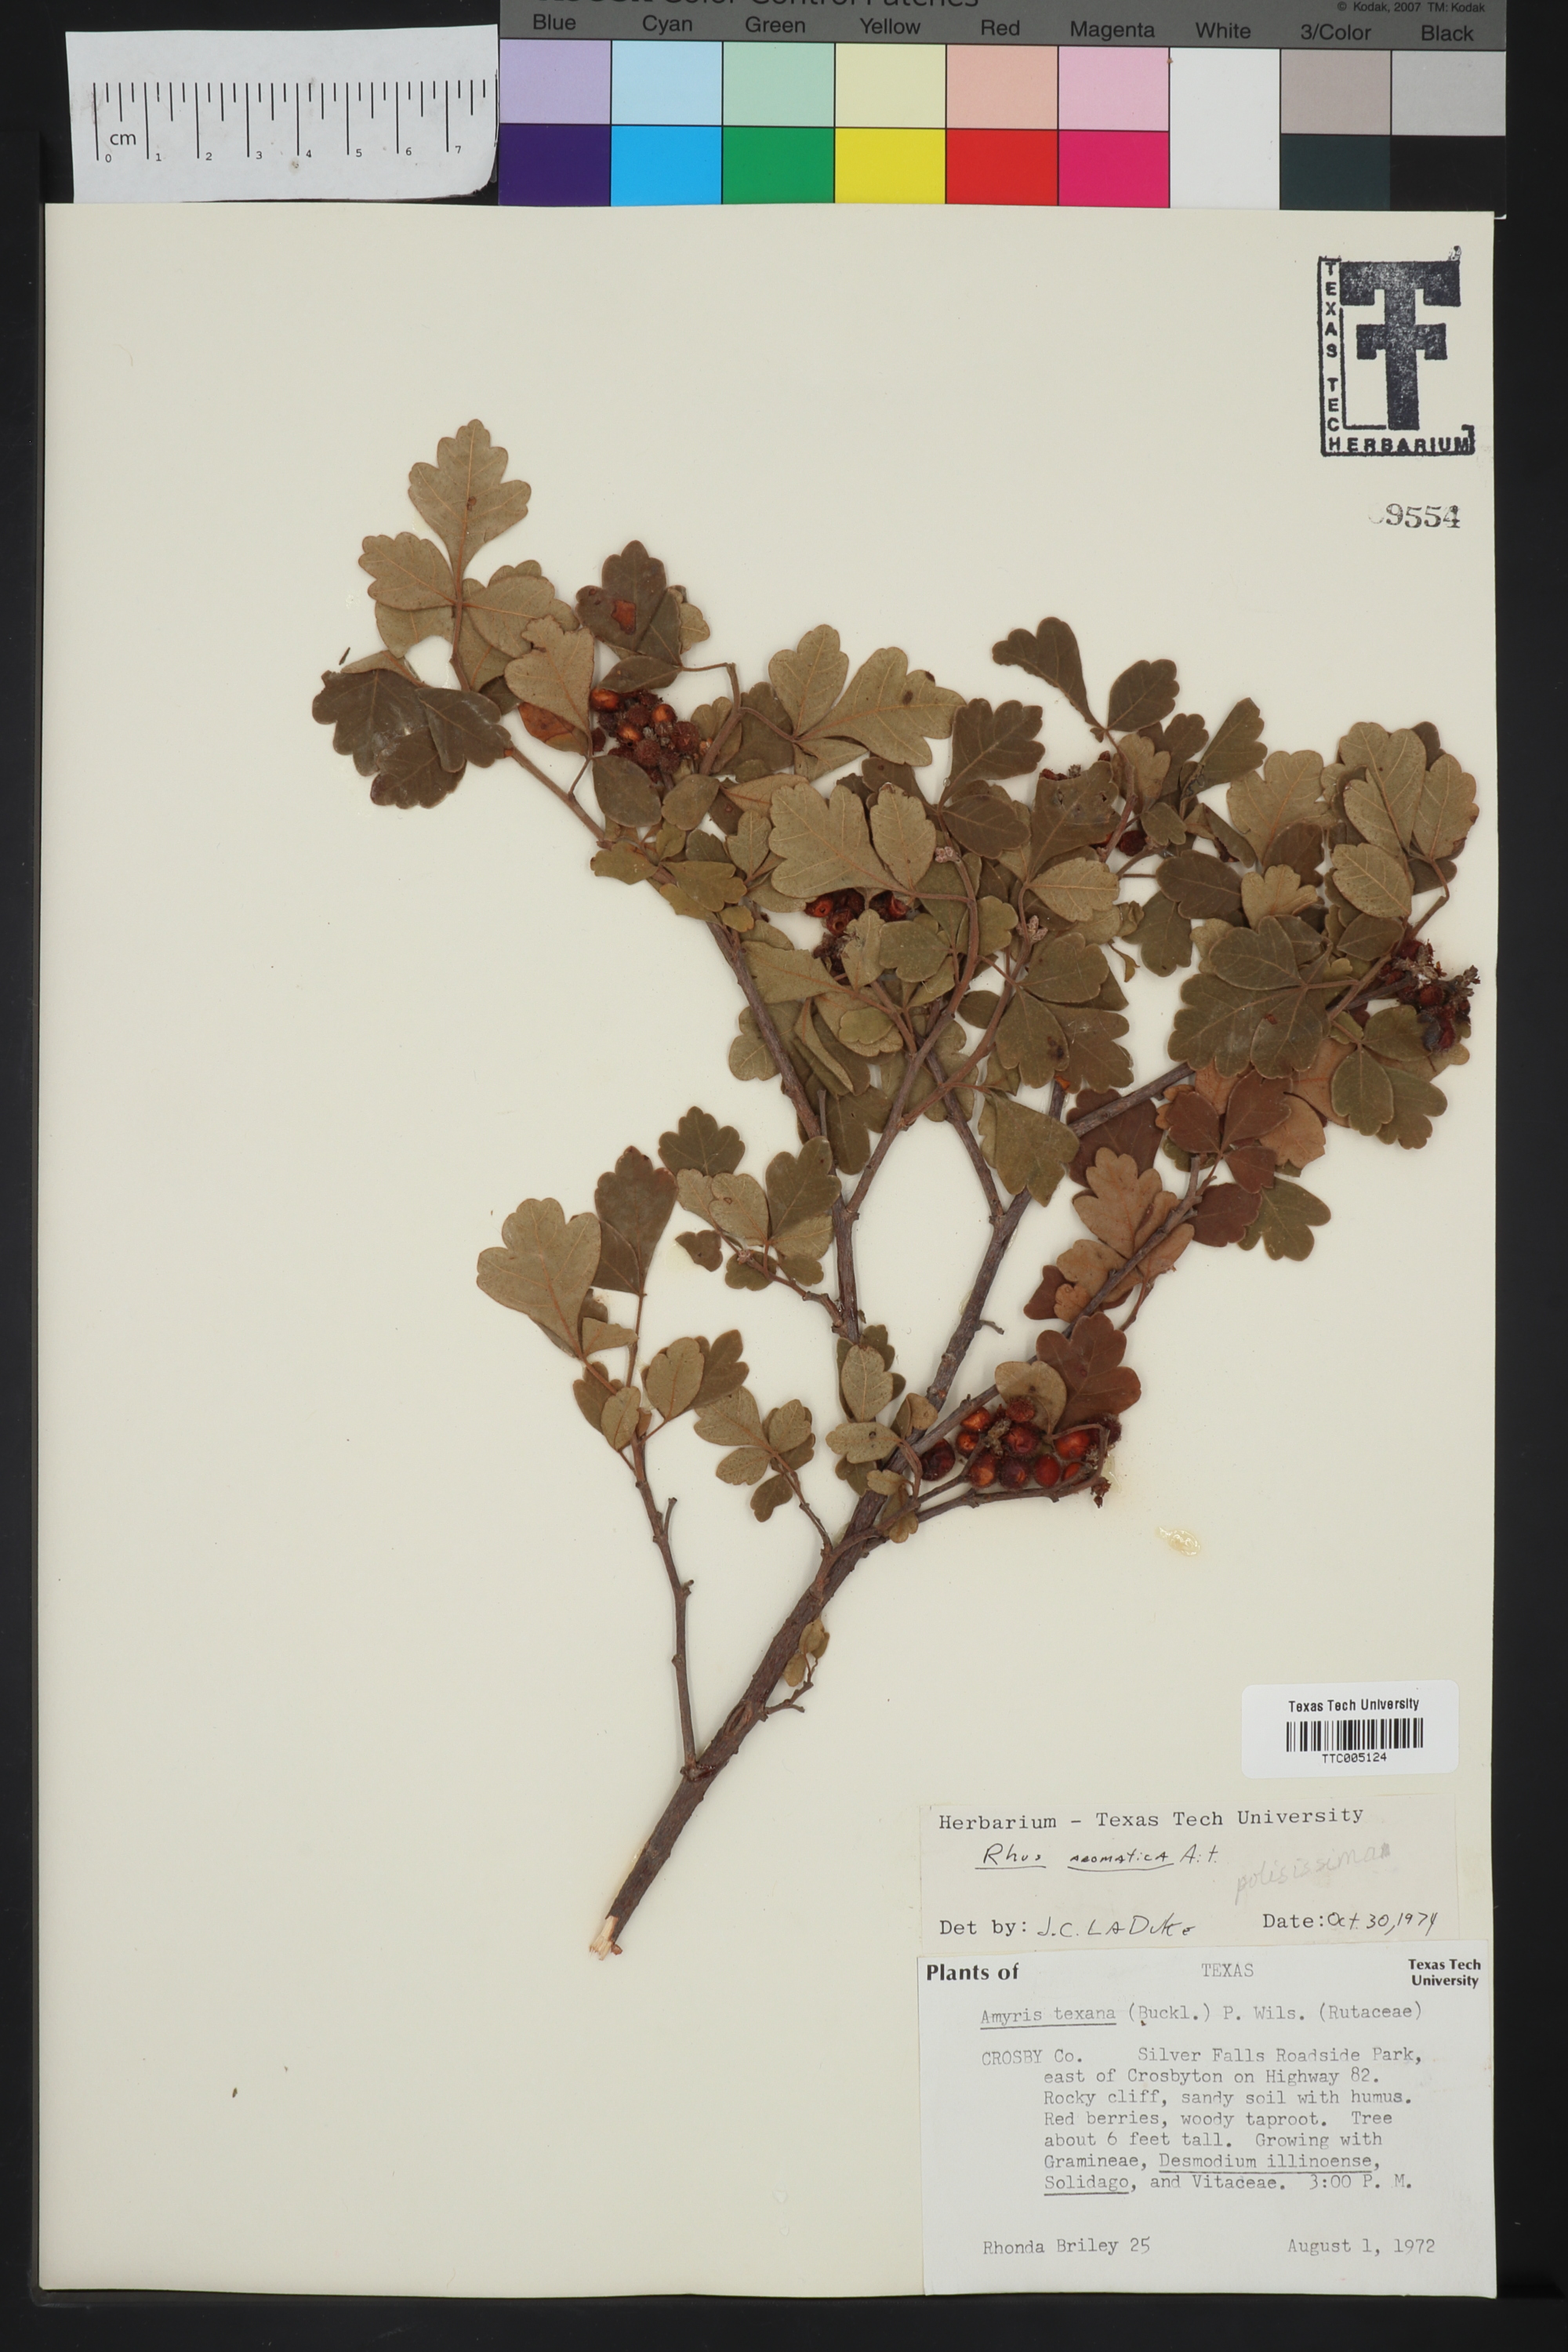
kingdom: Plantae
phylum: Tracheophyta
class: Magnoliopsida
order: Sapindales
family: Anacardiaceae
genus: Rhus
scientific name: Rhus aromatica
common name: Aromatic sumac
